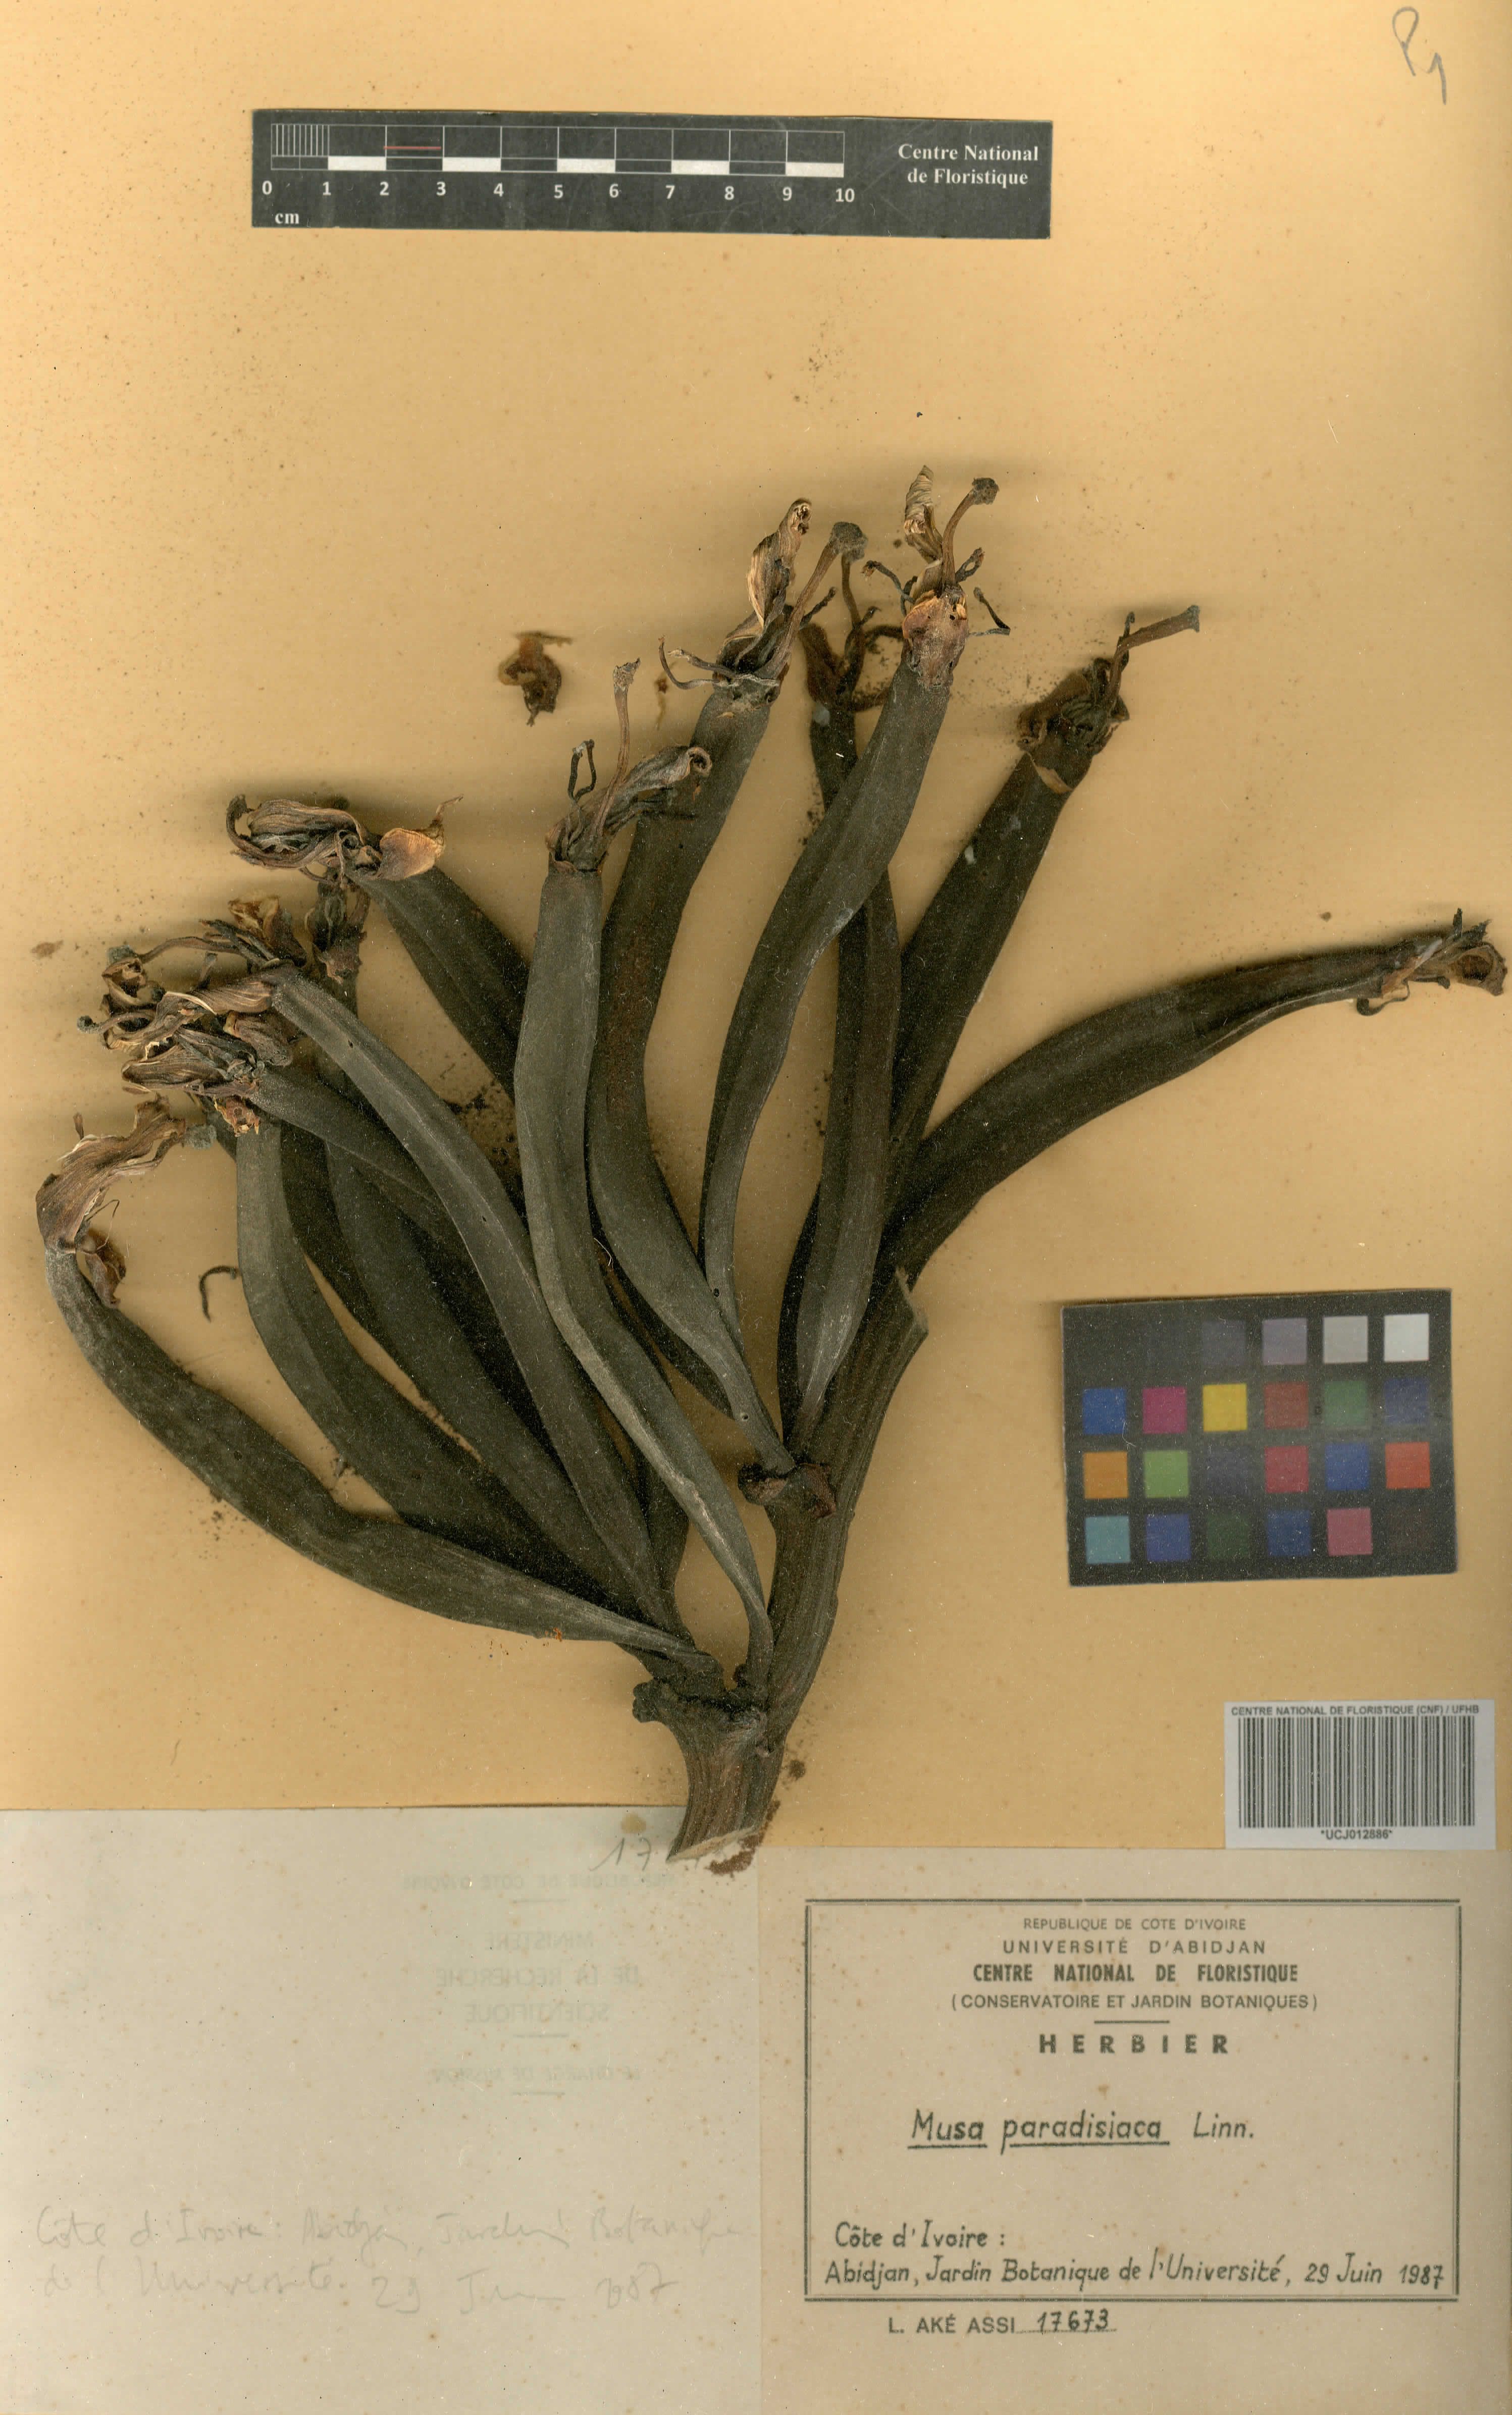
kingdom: Plantae
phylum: Tracheophyta
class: Liliopsida
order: Zingiberales
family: Musaceae
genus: Musa
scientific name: Musa paradisiaca
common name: French plantain
